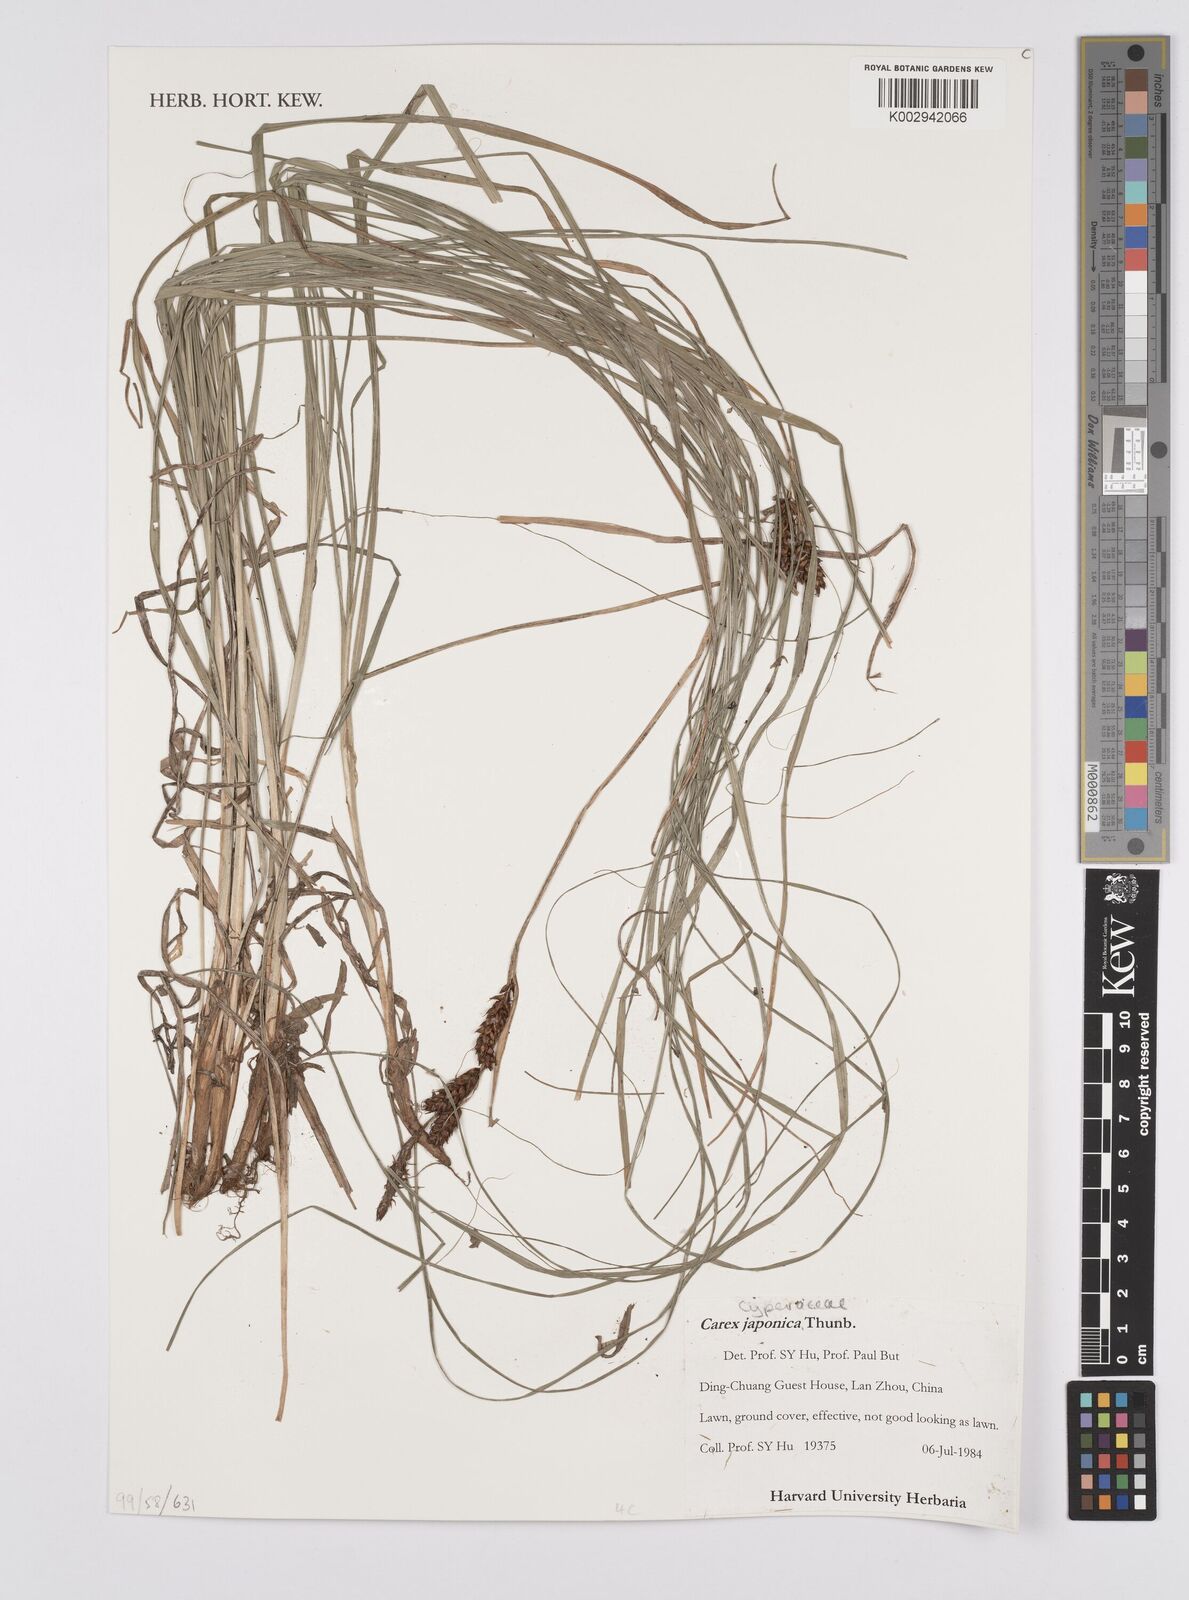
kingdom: Plantae
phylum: Tracheophyta
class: Liliopsida
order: Poales
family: Cyperaceae
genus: Carex
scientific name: Carex japonica
